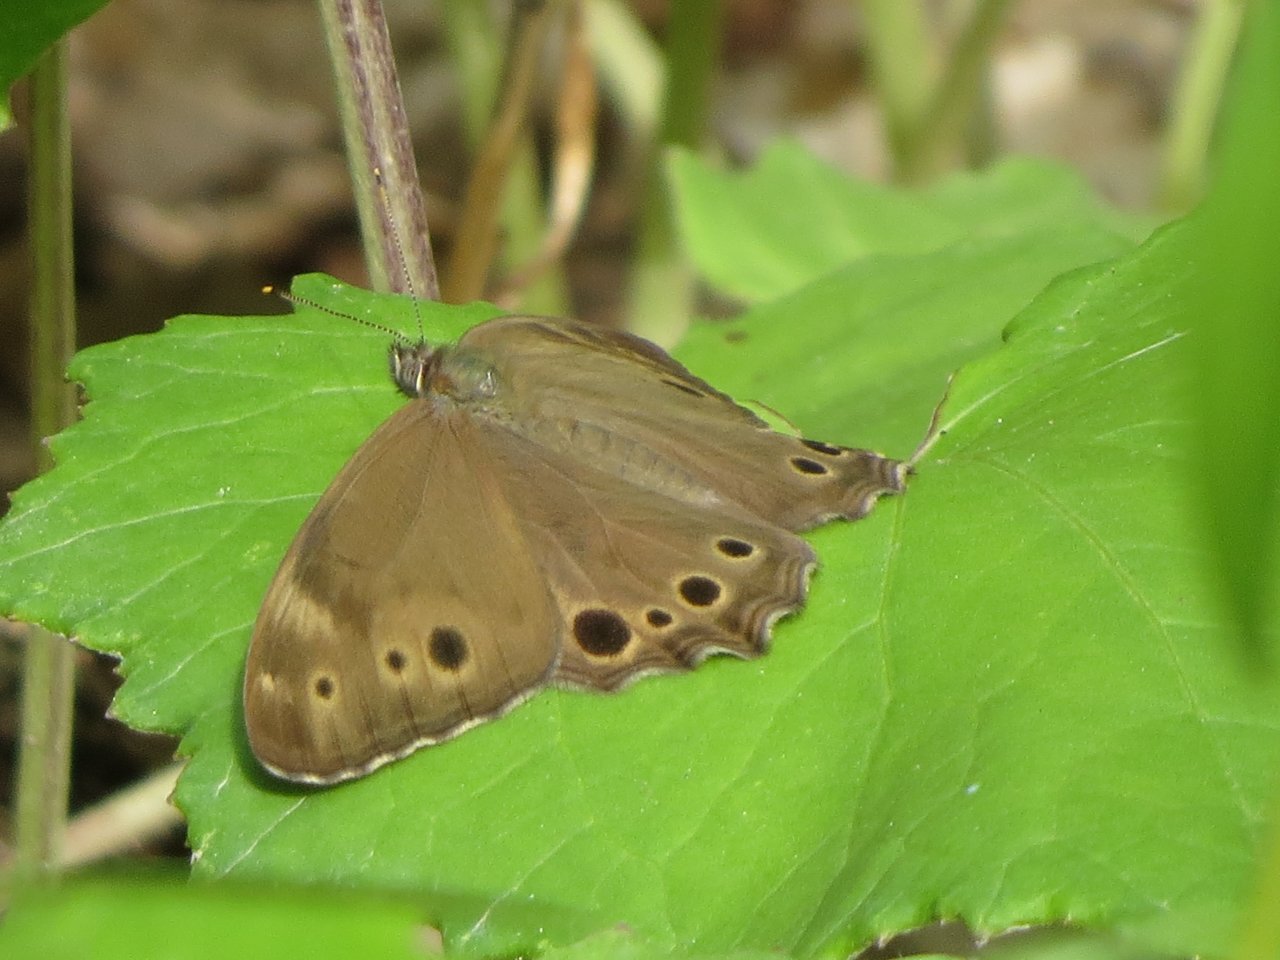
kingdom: Animalia
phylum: Arthropoda
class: Insecta
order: Lepidoptera
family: Nymphalidae
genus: Lethe
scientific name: Lethe anthedon
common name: Northern Pearly-Eye
